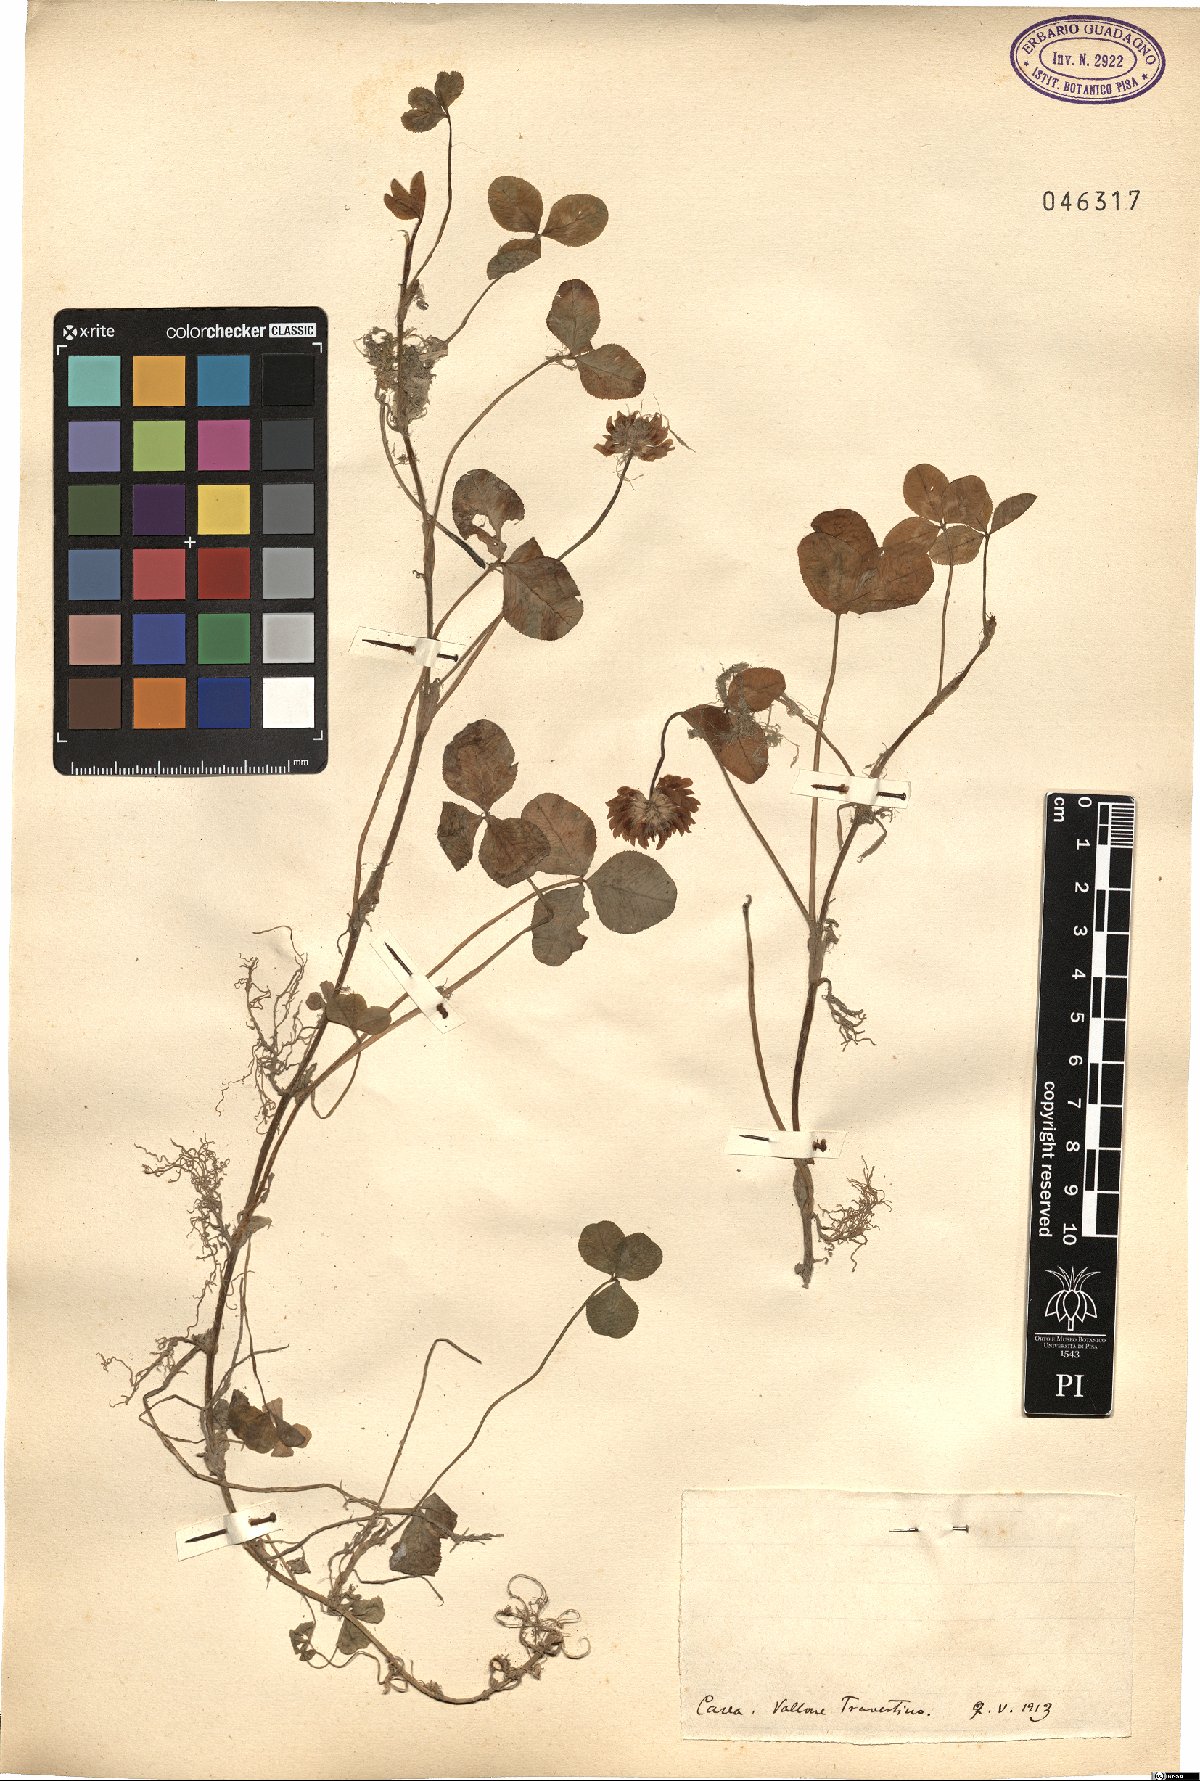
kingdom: Plantae
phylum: Tracheophyta
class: Magnoliopsida
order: Fabales
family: Fabaceae
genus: Trifolium
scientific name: Trifolium
